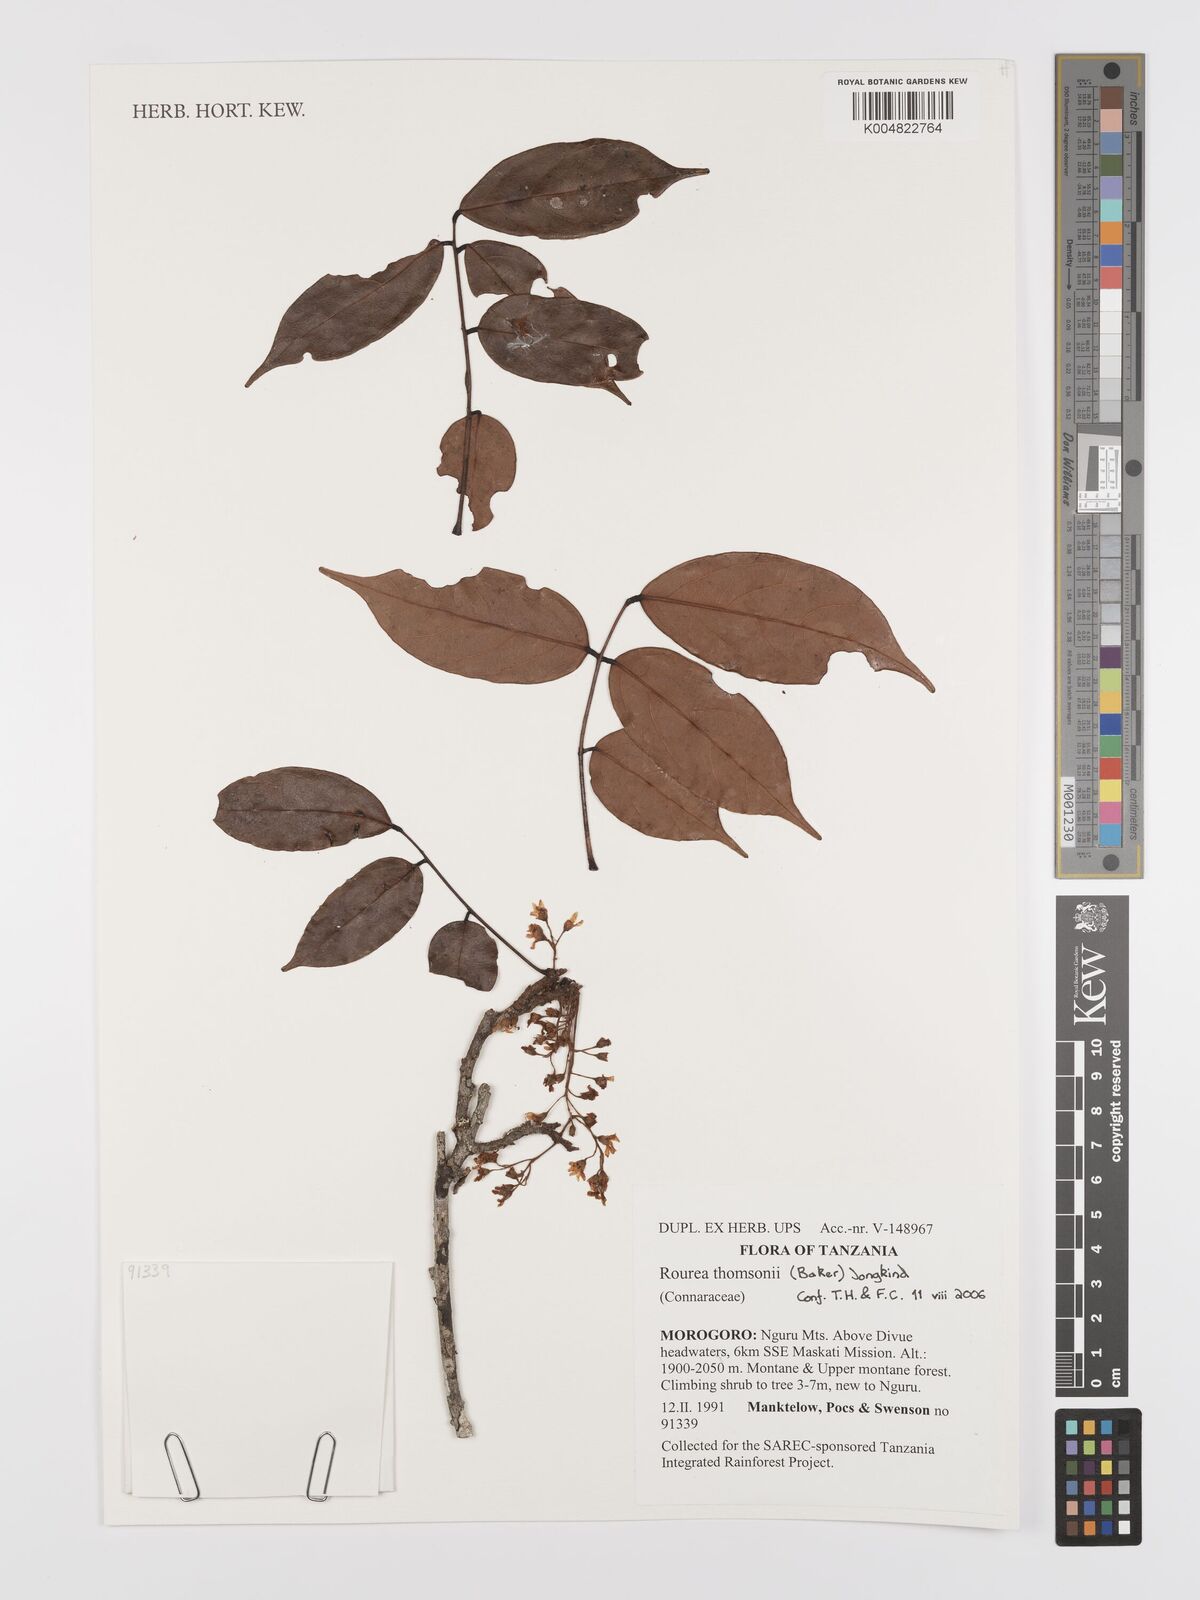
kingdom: Plantae
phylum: Tracheophyta
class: Magnoliopsida
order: Oxalidales
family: Connaraceae
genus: Rourea
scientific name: Rourea thomsonii
